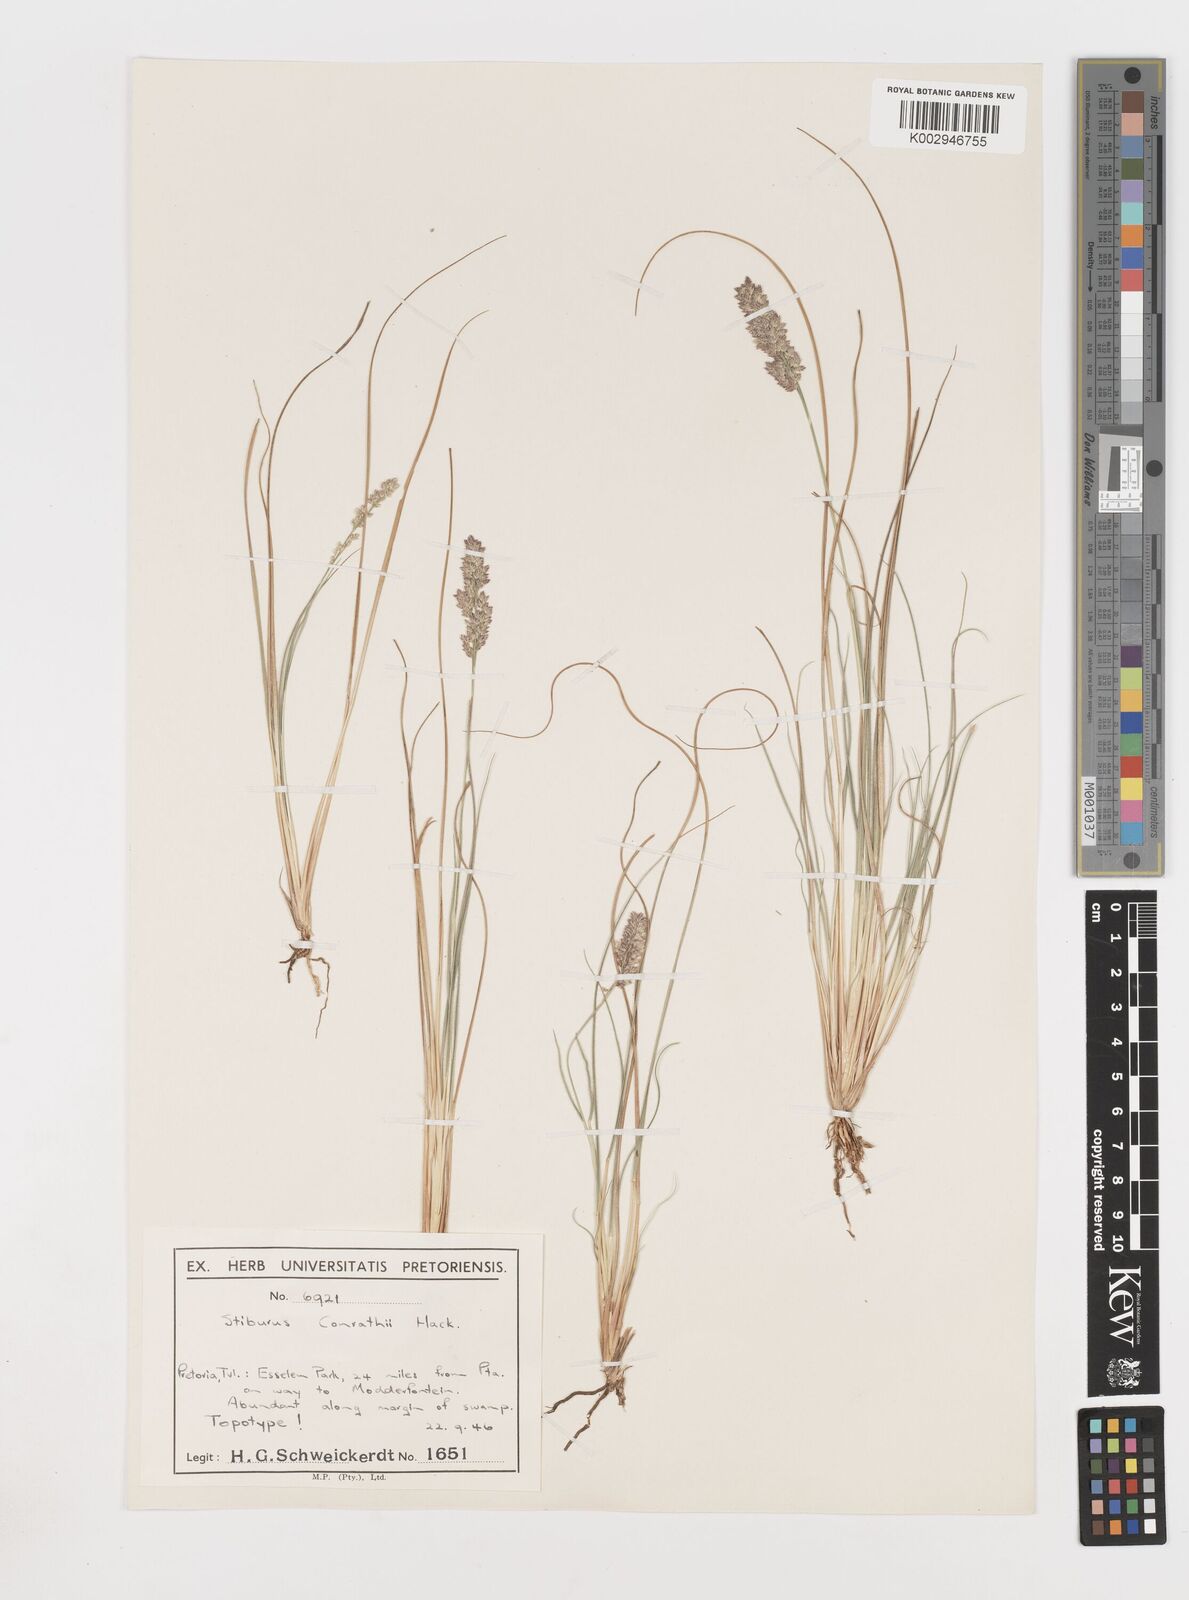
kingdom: Plantae
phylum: Tracheophyta
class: Liliopsida
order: Poales
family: Poaceae
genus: Stiburus
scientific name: Stiburus conrathii
